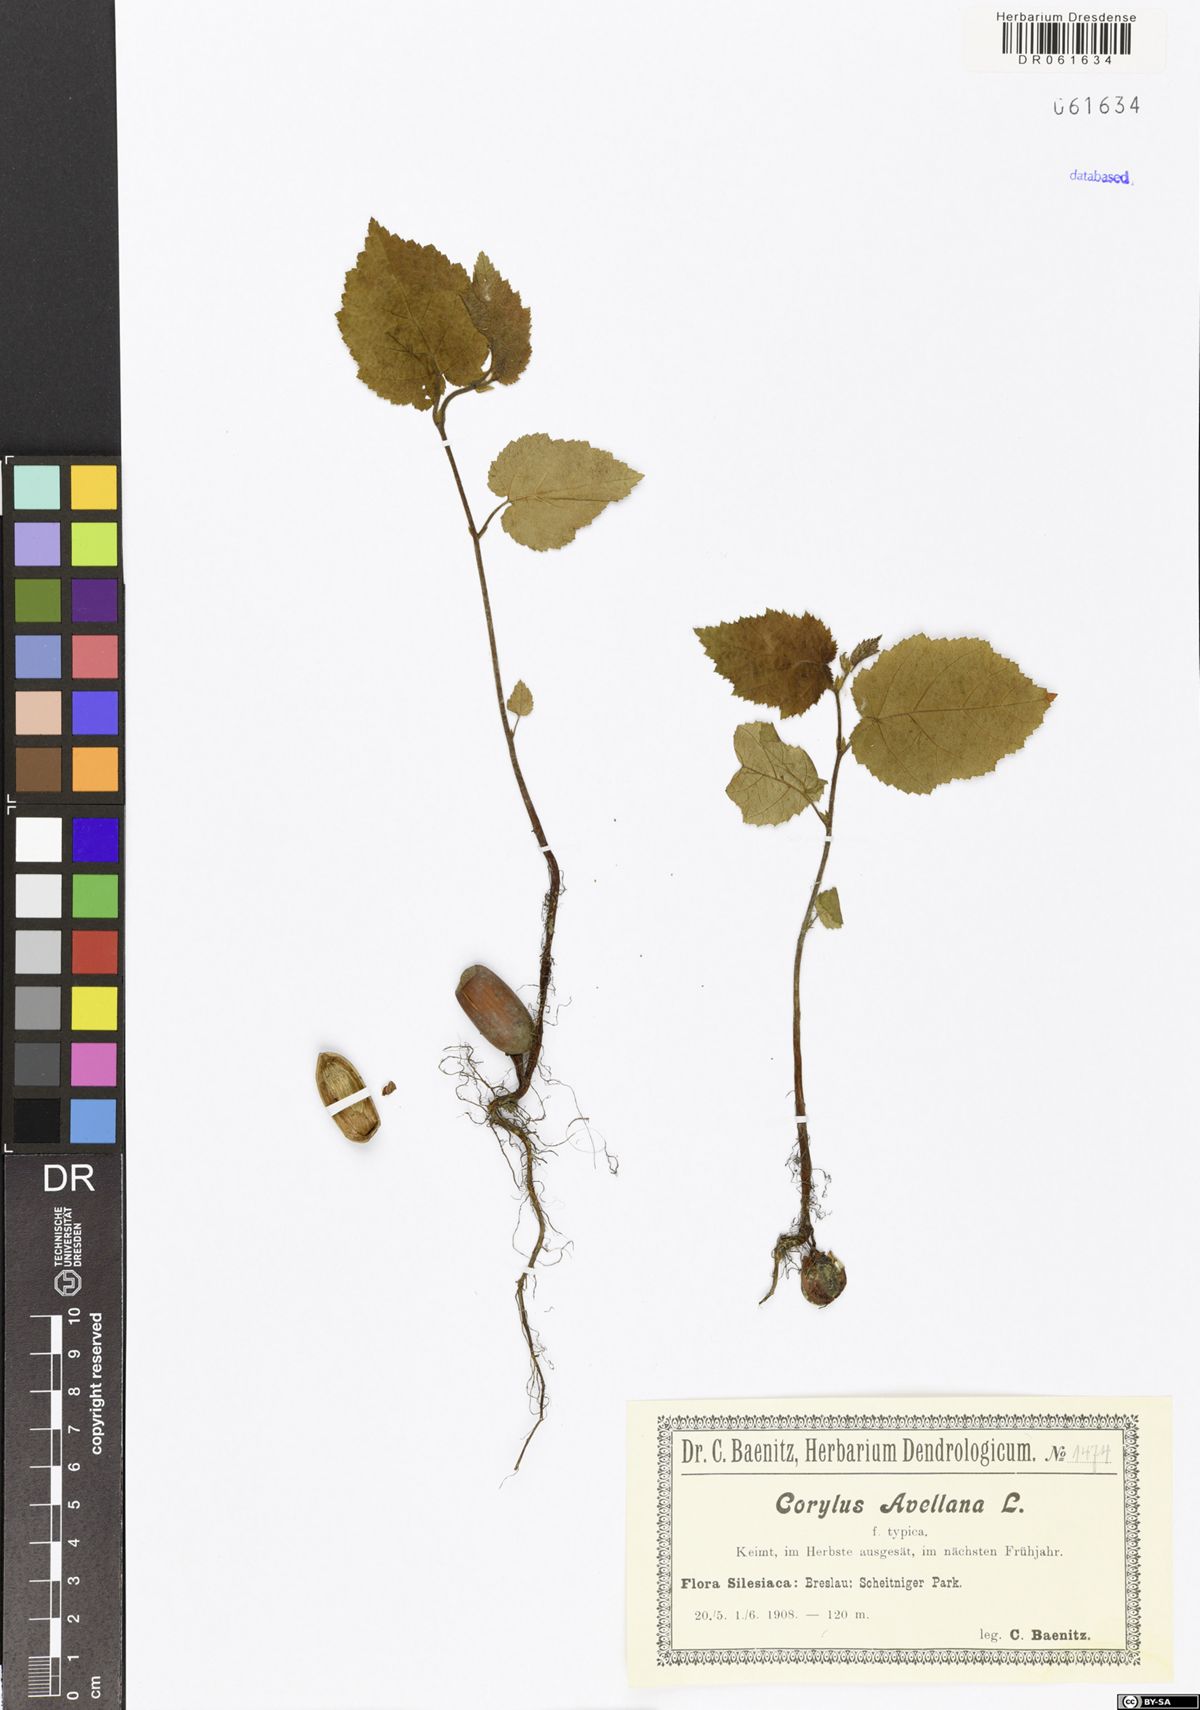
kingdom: Plantae
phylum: Tracheophyta
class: Magnoliopsida
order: Fagales
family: Betulaceae
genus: Corylus
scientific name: Corylus avellana
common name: European hazel
